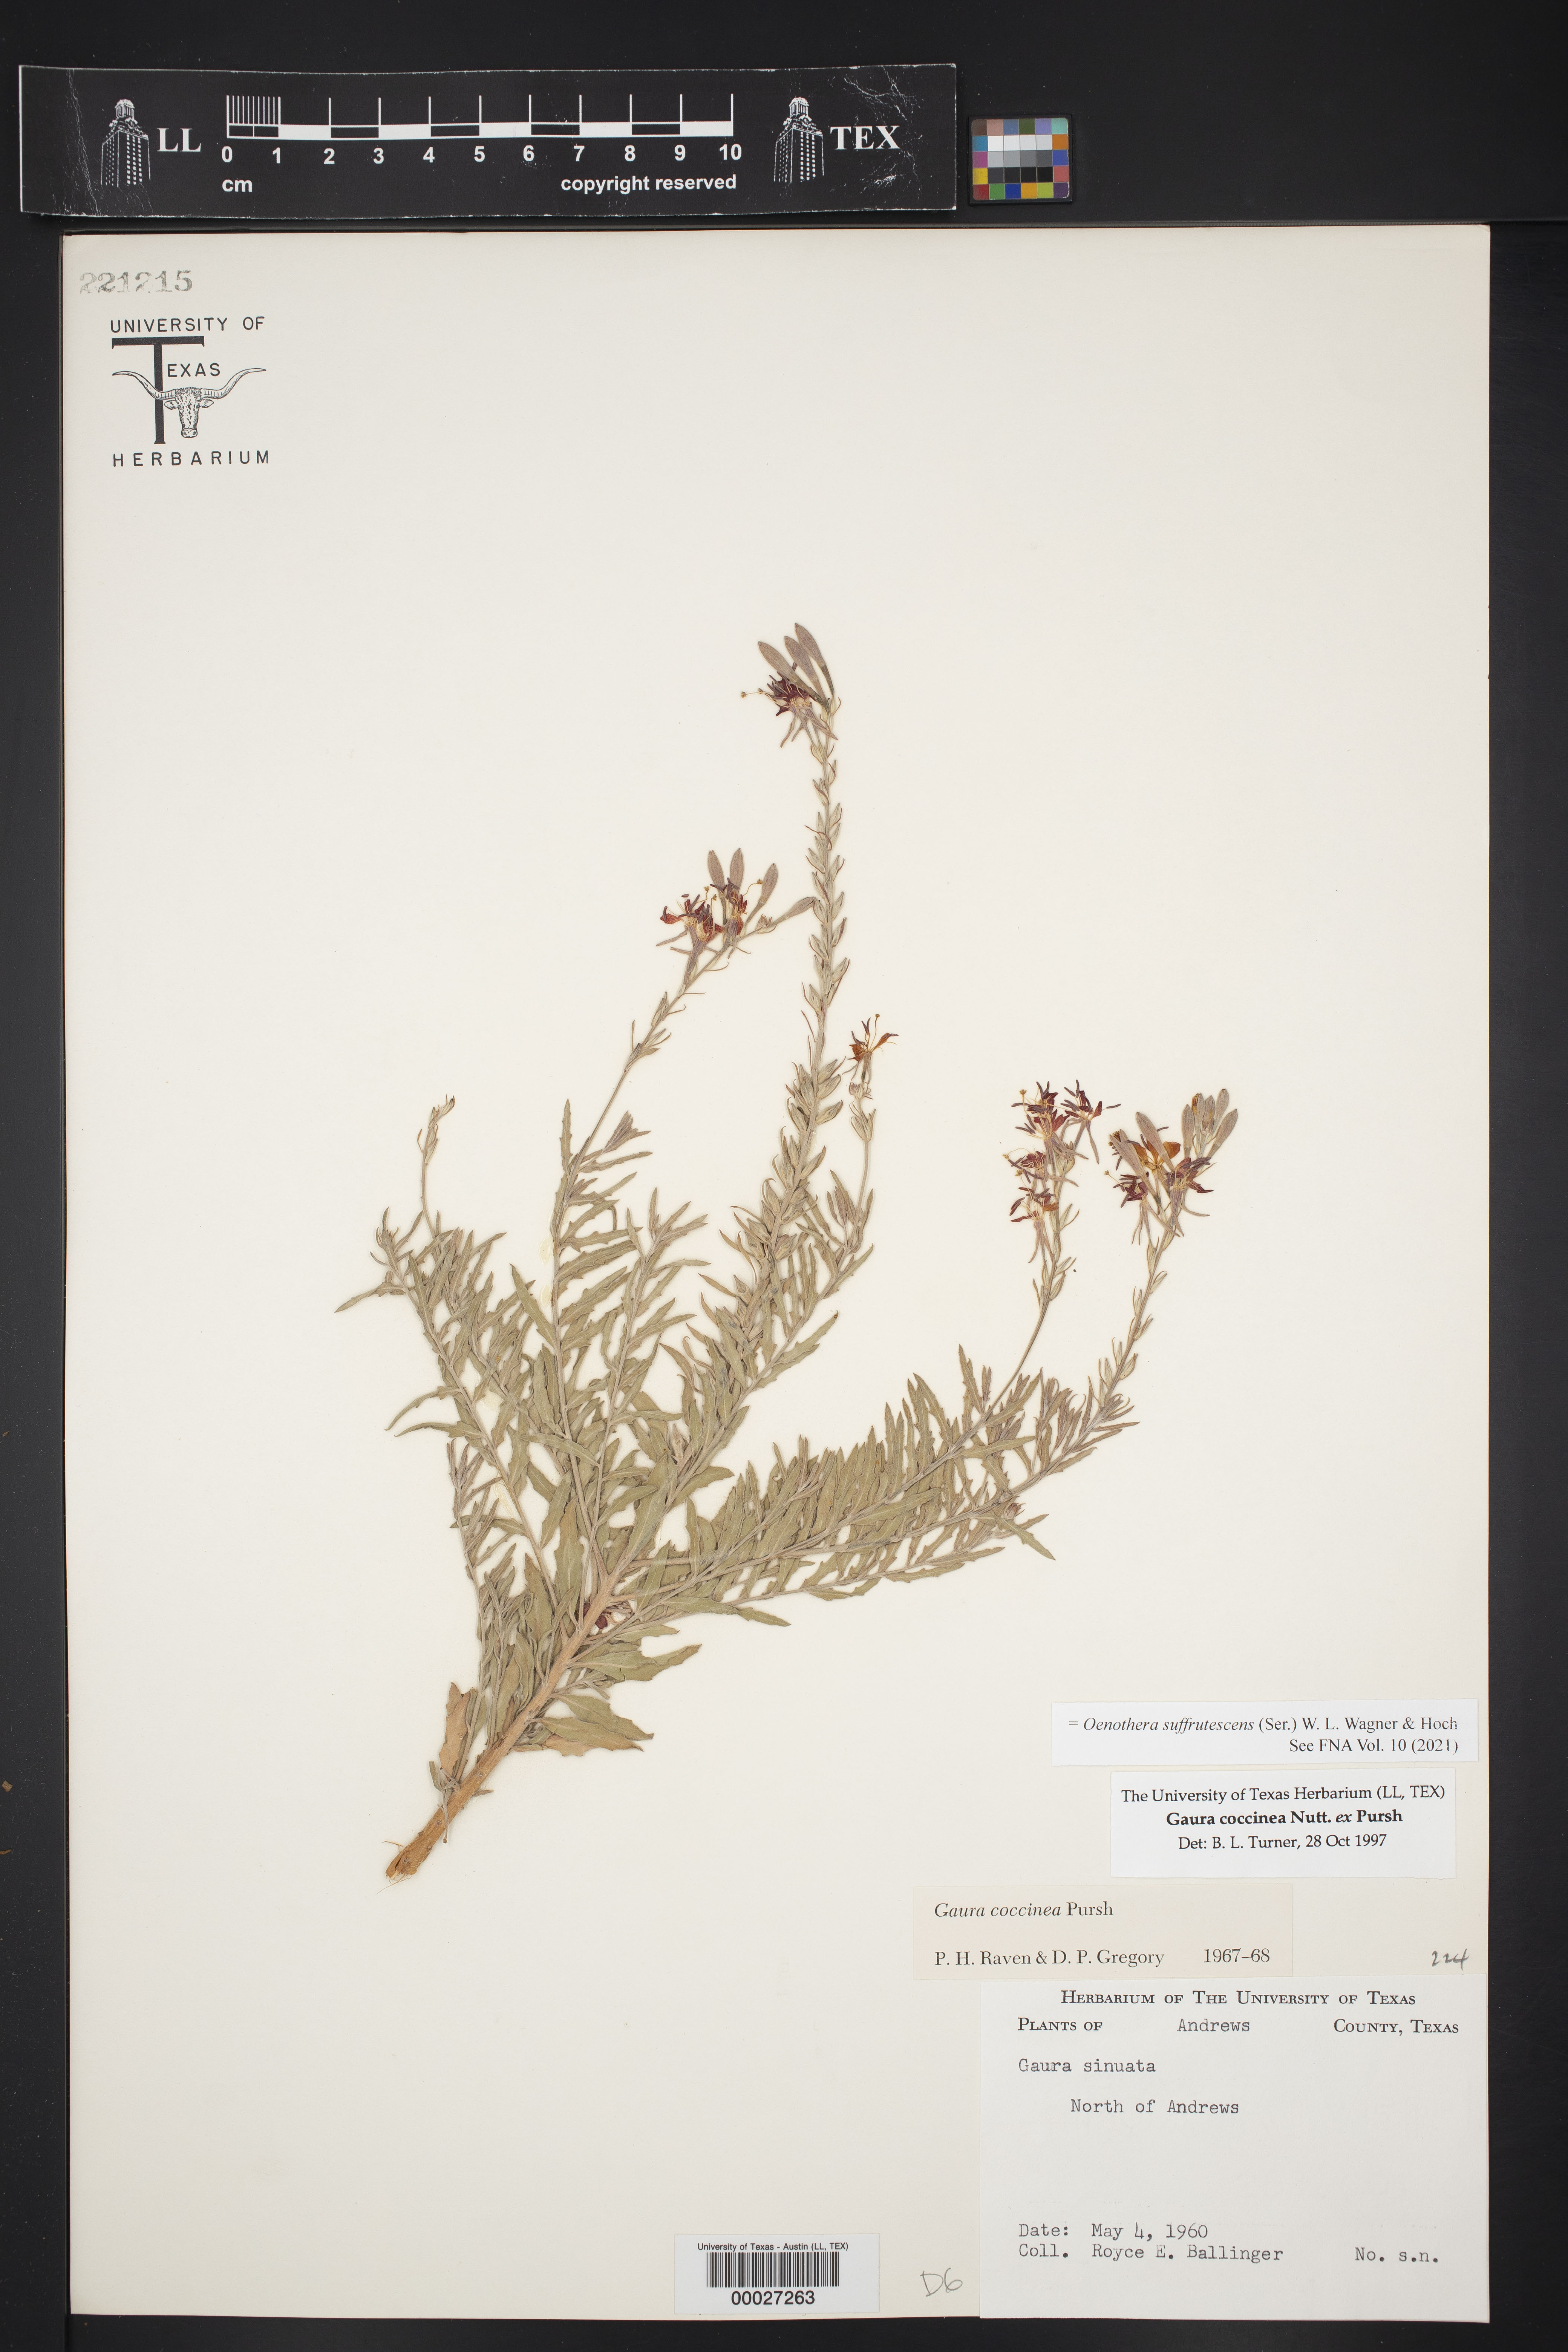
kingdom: Plantae
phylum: Tracheophyta
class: Magnoliopsida
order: Myrtales
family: Onagraceae
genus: Oenothera
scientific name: Oenothera suffrutescens
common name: Scarlet beeblossom
